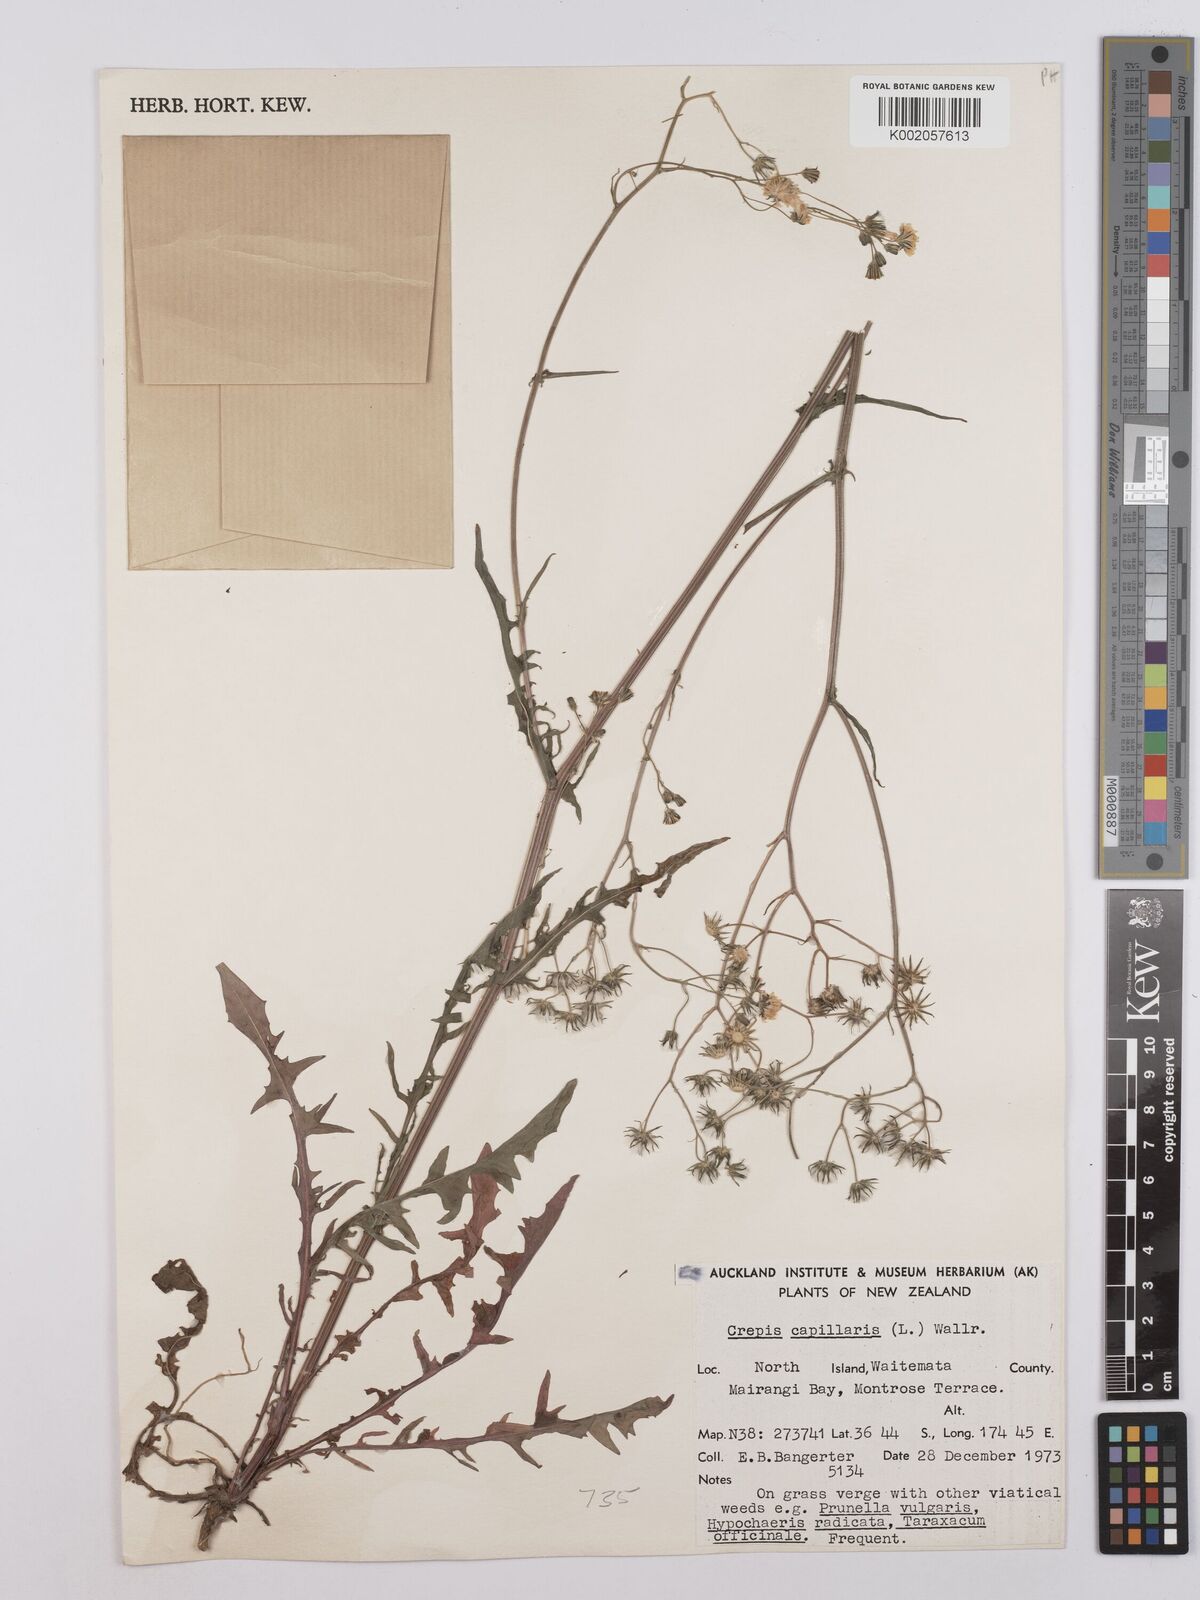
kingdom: Plantae
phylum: Tracheophyta
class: Magnoliopsida
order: Asterales
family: Asteraceae
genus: Crepis
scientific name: Crepis capillaris
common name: Smooth hawksbeard
